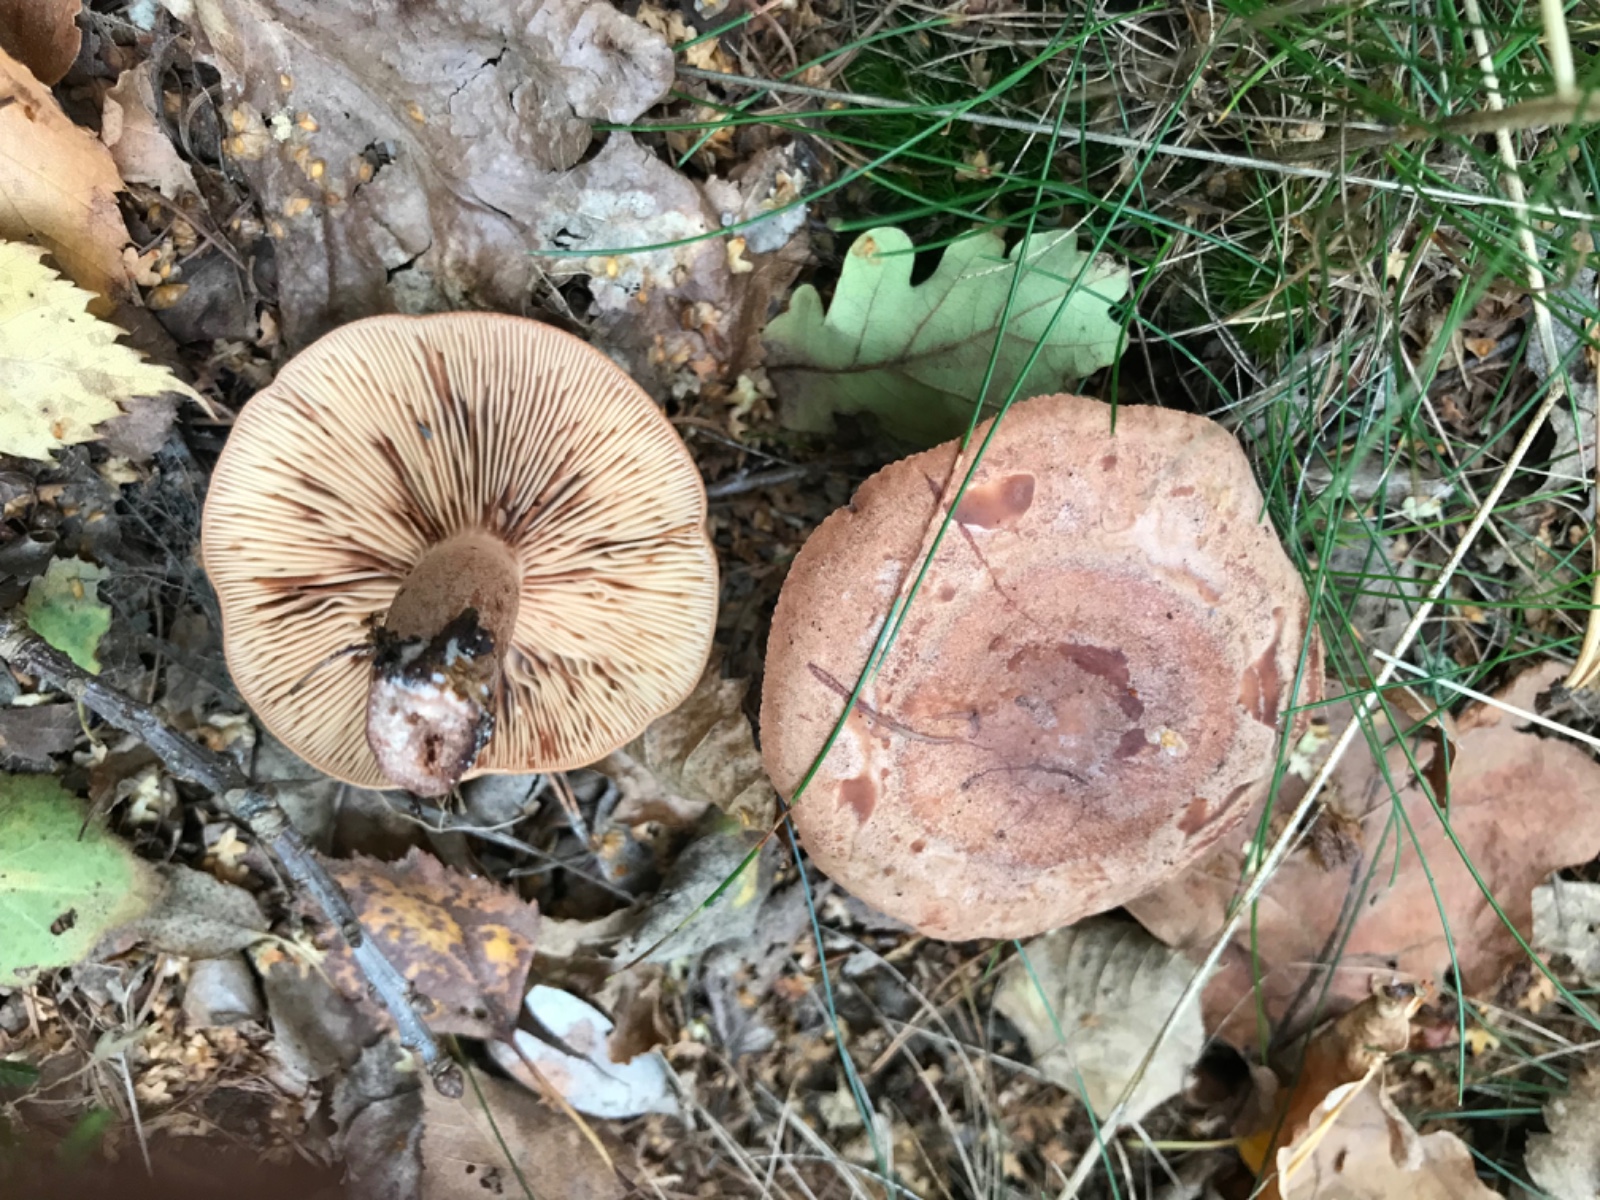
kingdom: Fungi
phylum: Basidiomycota
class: Agaricomycetes
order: Russulales
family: Russulaceae
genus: Lactarius
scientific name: Lactarius quietus
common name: ege-mælkehat
